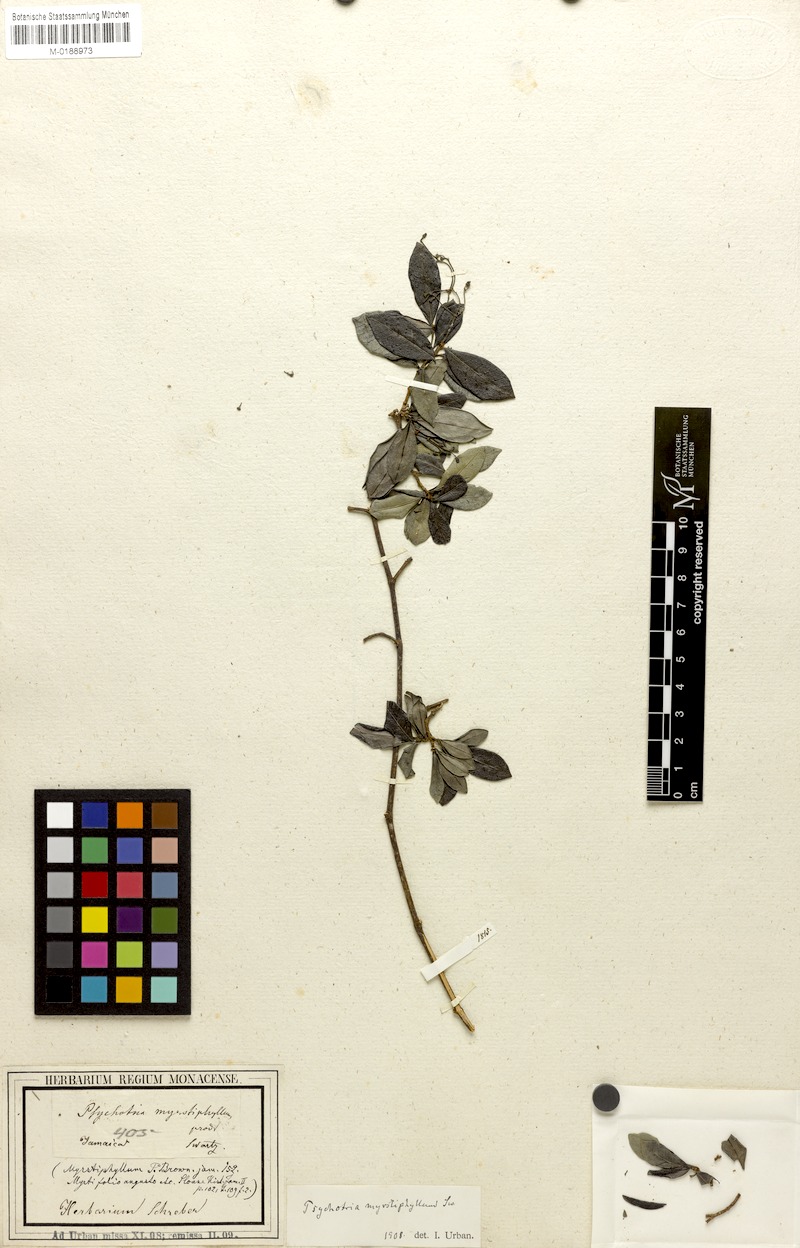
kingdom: Plantae
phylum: Tracheophyta
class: Magnoliopsida
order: Gentianales
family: Rubiaceae
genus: Psychotria
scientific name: Psychotria myrtiphyllum
